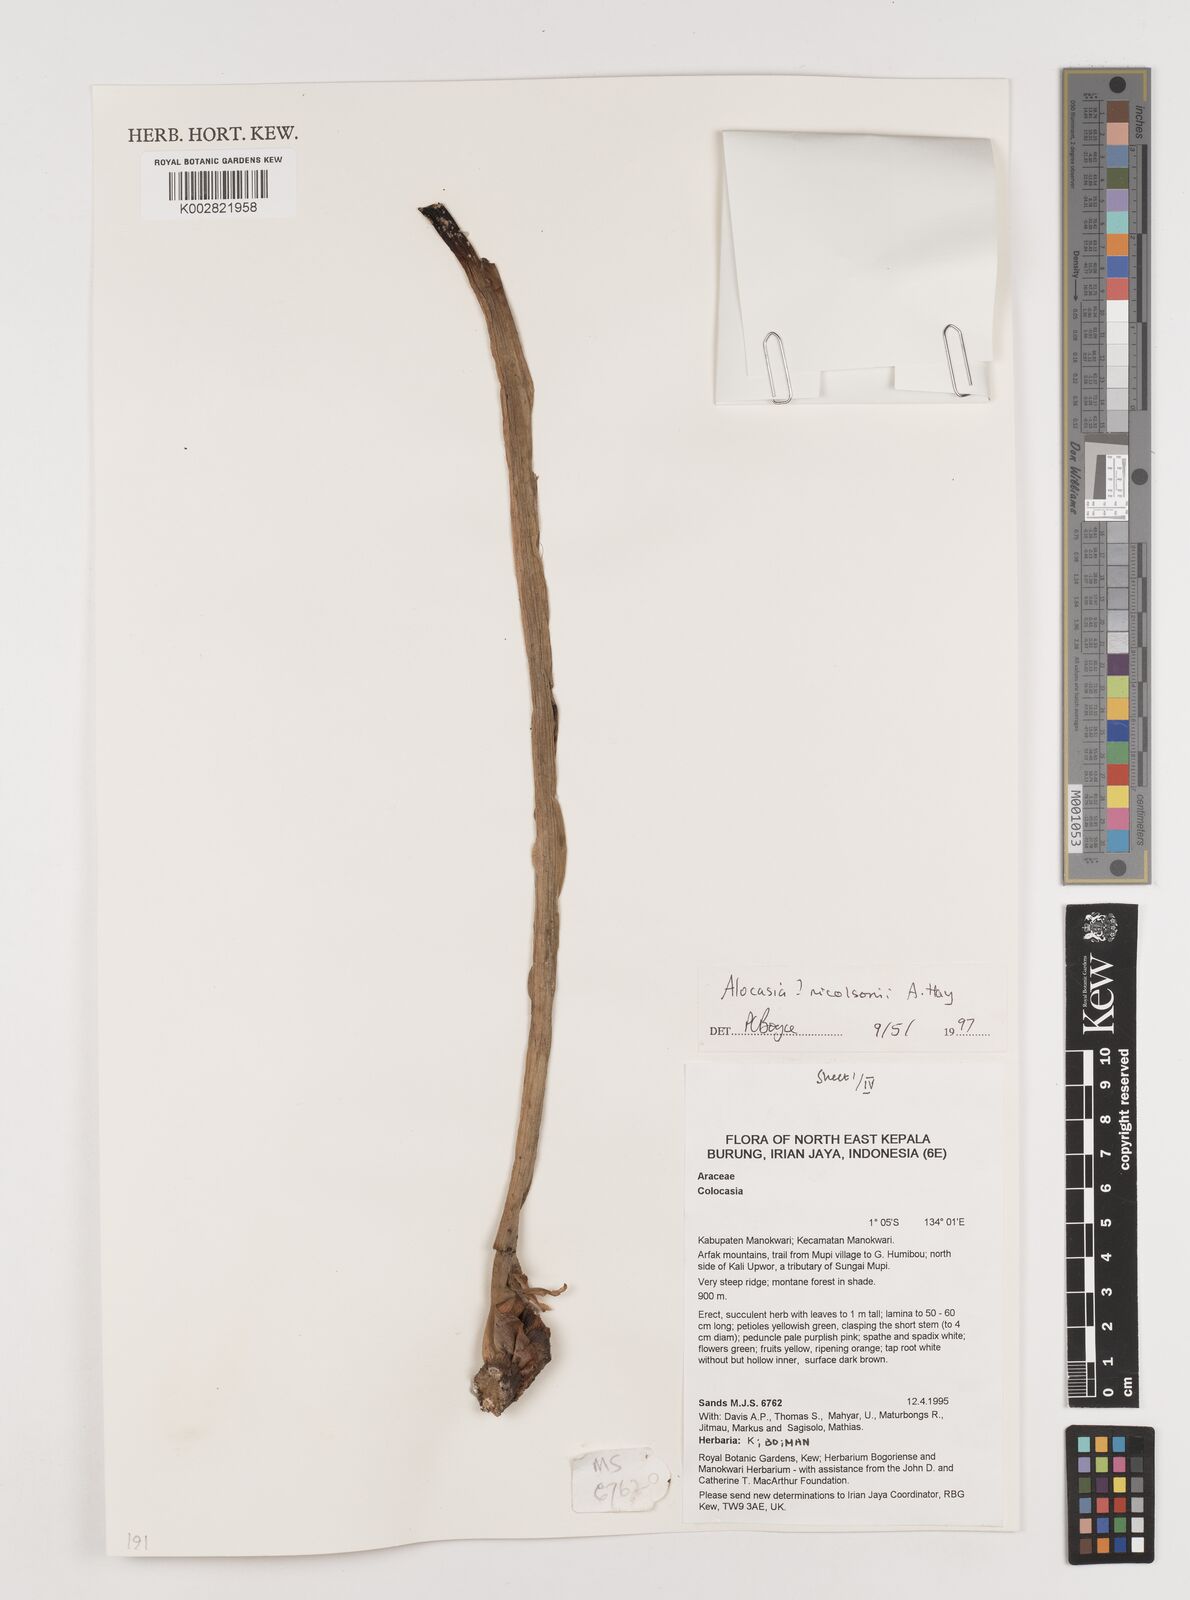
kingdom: Plantae
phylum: Tracheophyta
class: Liliopsida
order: Alismatales
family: Araceae
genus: Alocasia
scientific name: Alocasia nicolsonii
